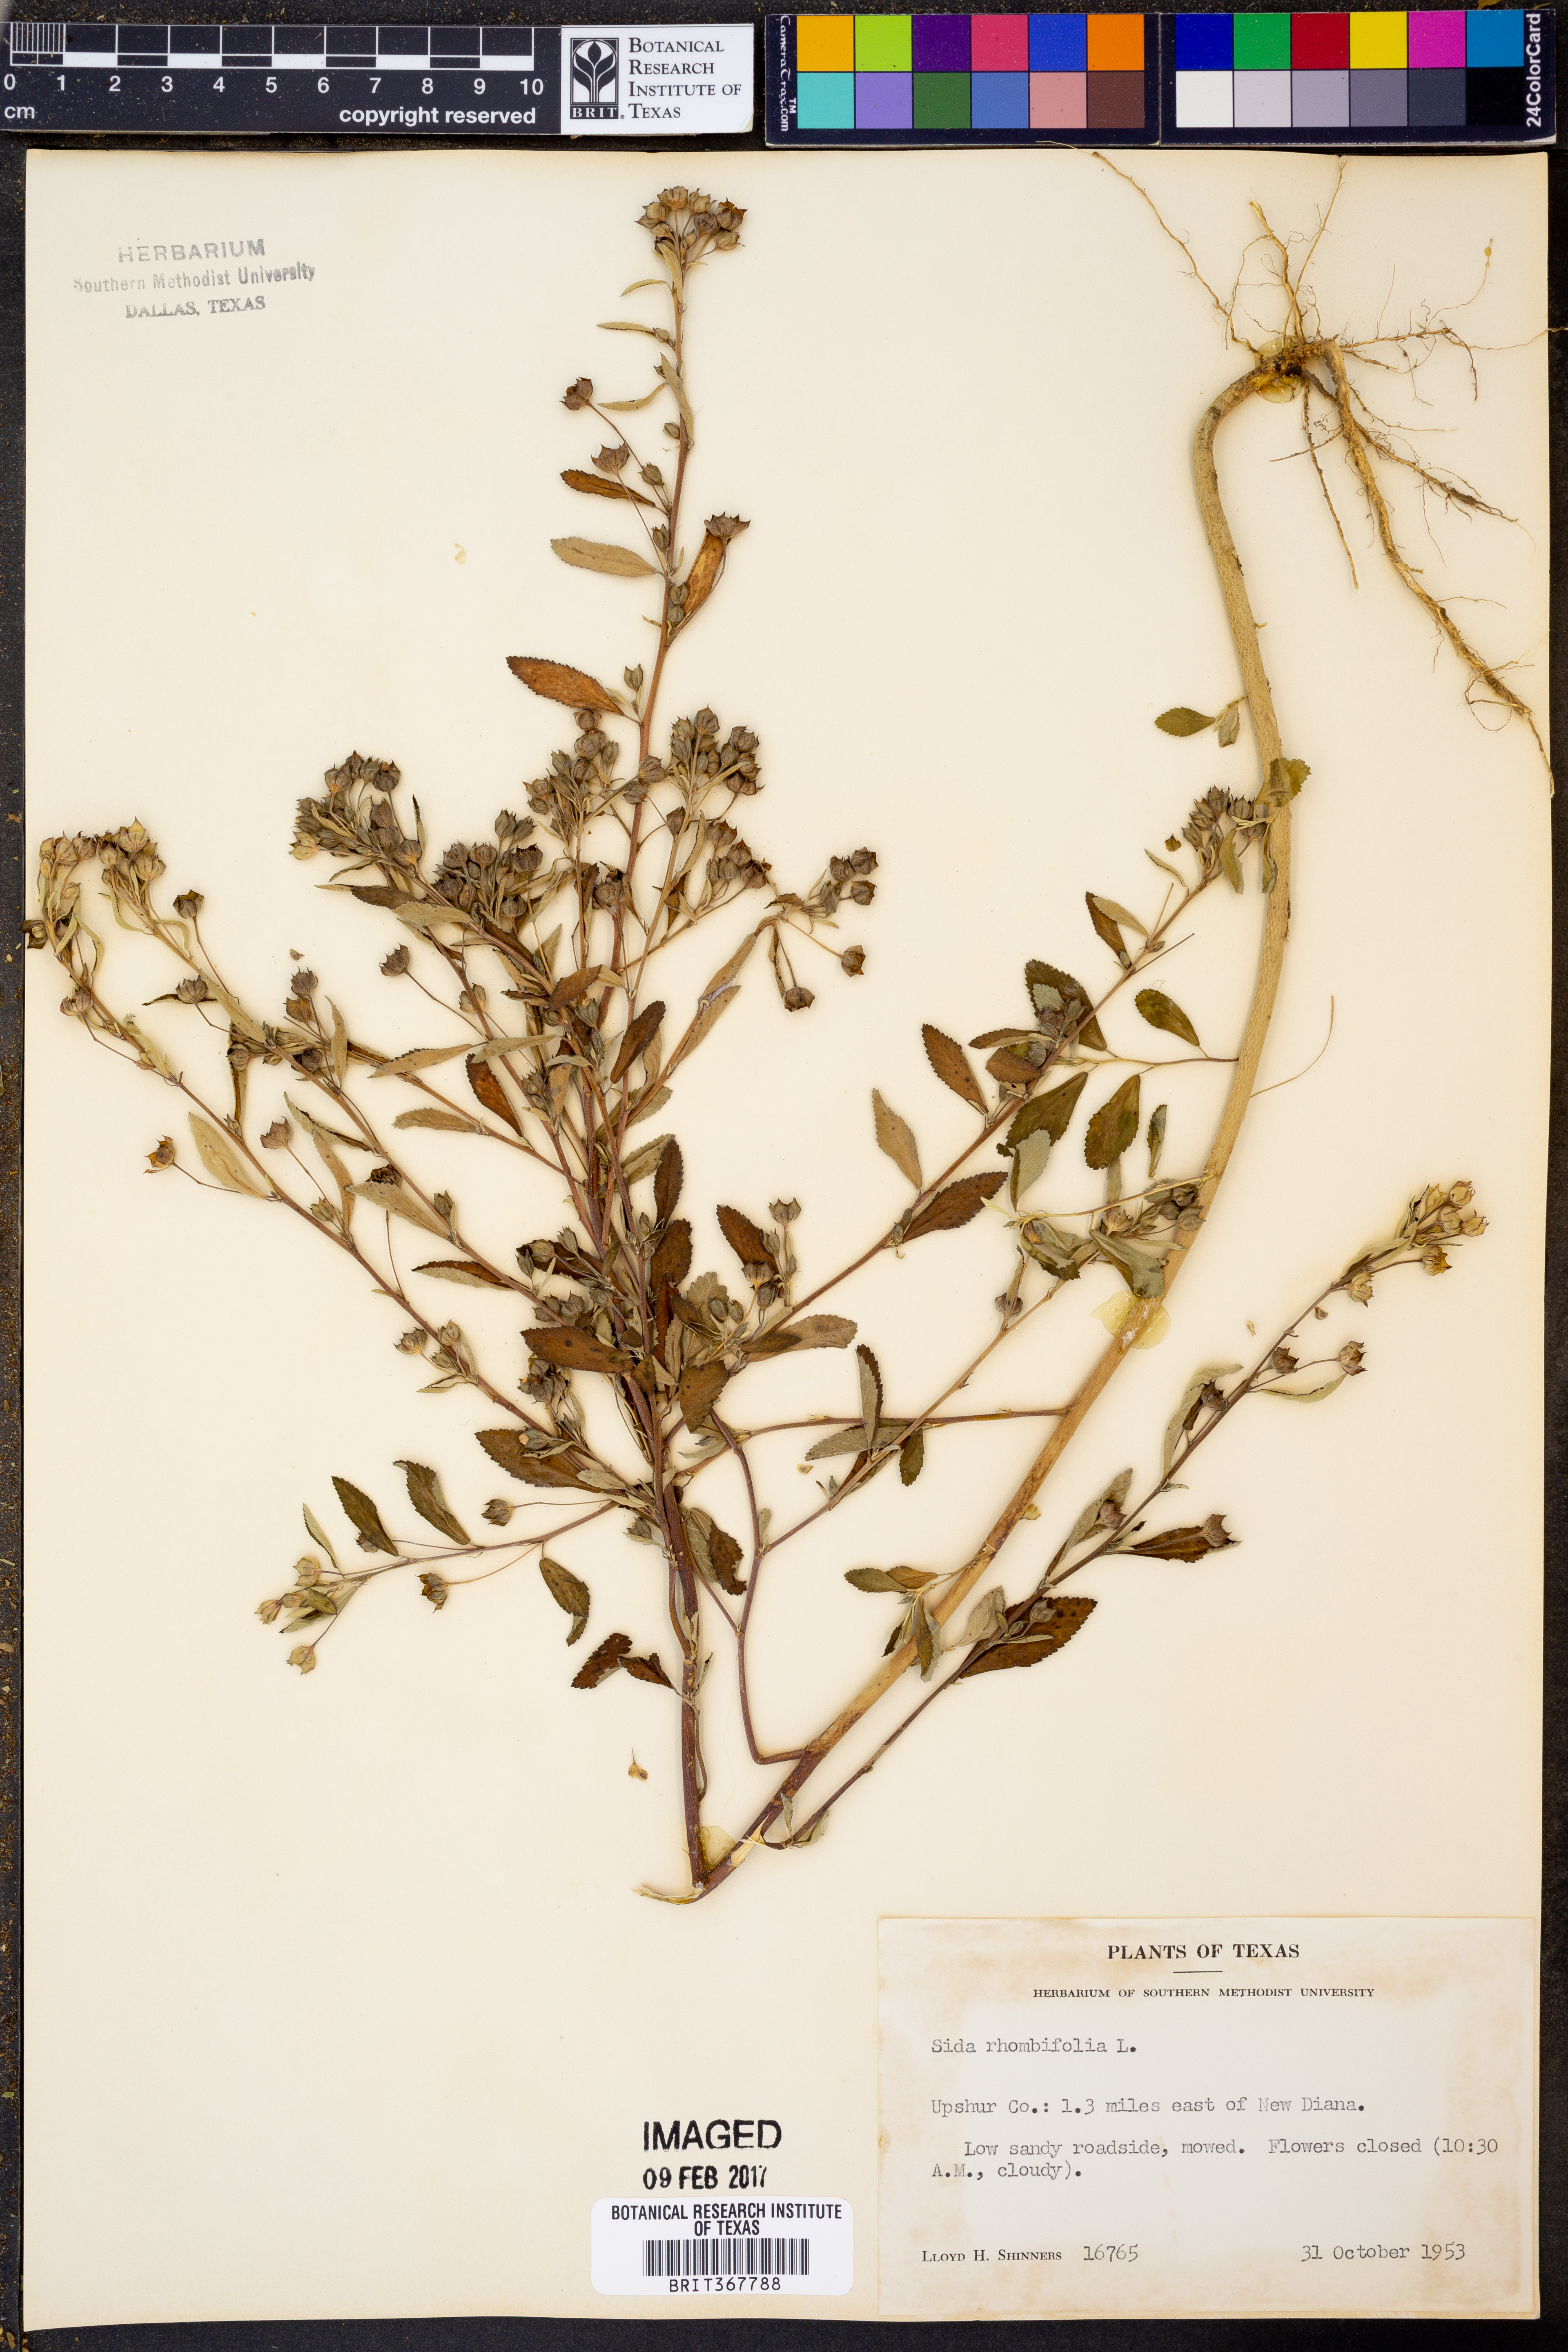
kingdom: Plantae
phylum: Tracheophyta
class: Magnoliopsida
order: Malvales
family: Malvaceae
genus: Sida
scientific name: Sida rhombifolia
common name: Queensland-hemp
